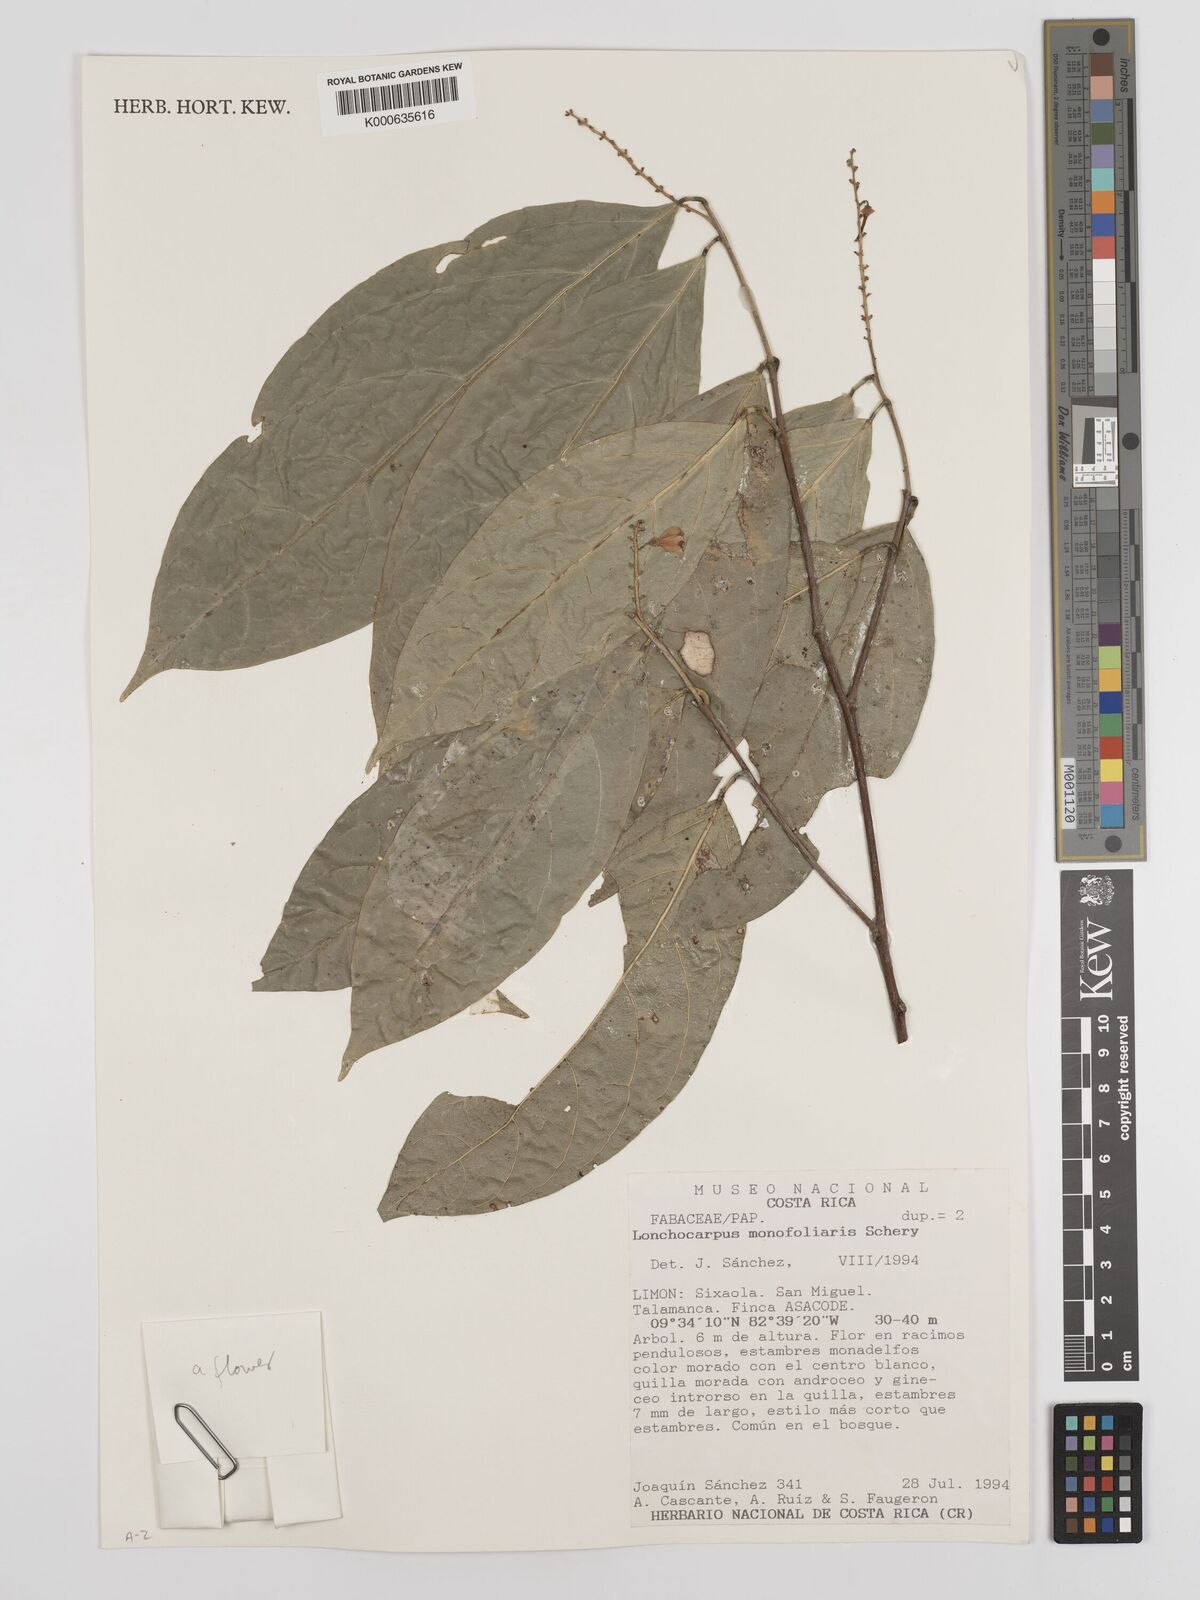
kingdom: Plantae
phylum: Tracheophyta
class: Magnoliopsida
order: Fabales
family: Fabaceae
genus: Lonchocarpus
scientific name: Lonchocarpus monofoliaris
